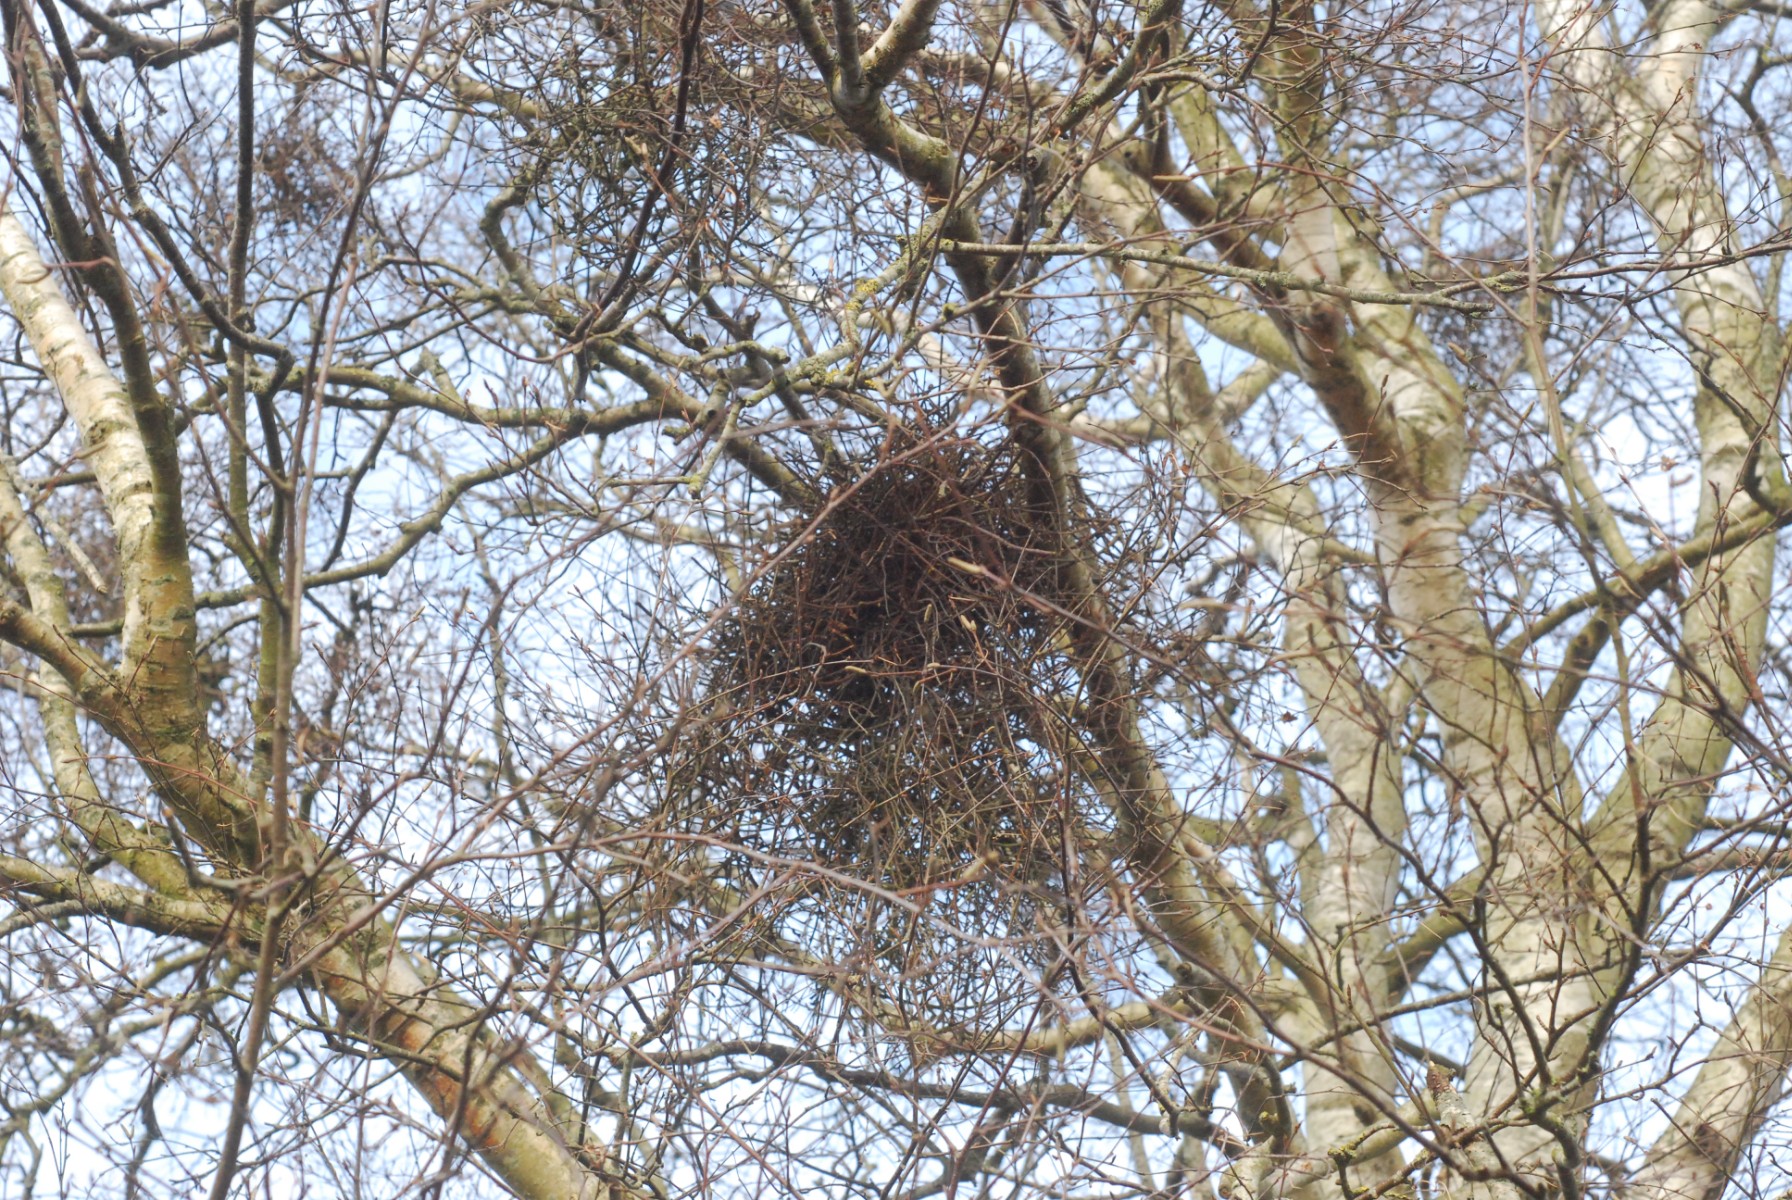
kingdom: Fungi
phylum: Ascomycota
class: Taphrinomycetes
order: Taphrinales
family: Taphrinaceae
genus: Taphrina
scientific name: Taphrina betulina
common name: hekse-sækdug
